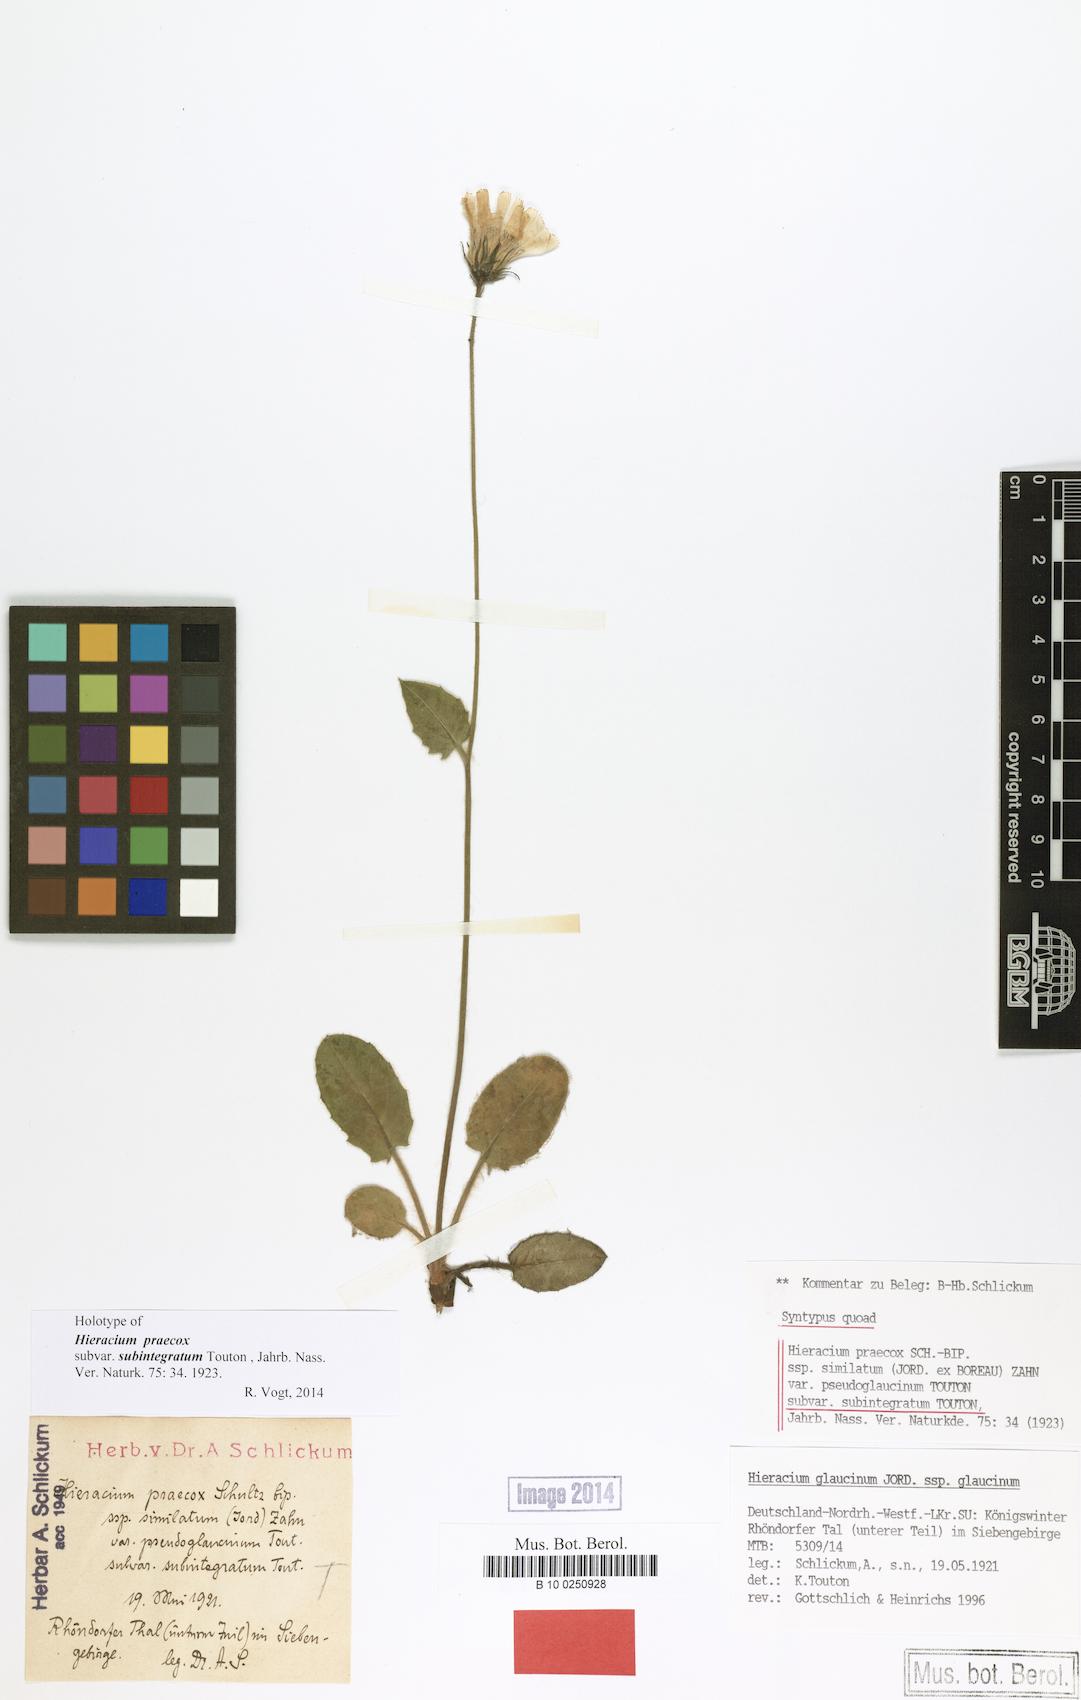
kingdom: Plantae
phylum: Tracheophyta
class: Magnoliopsida
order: Asterales
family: Asteraceae
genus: Hieracium
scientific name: Hieracium praecox
